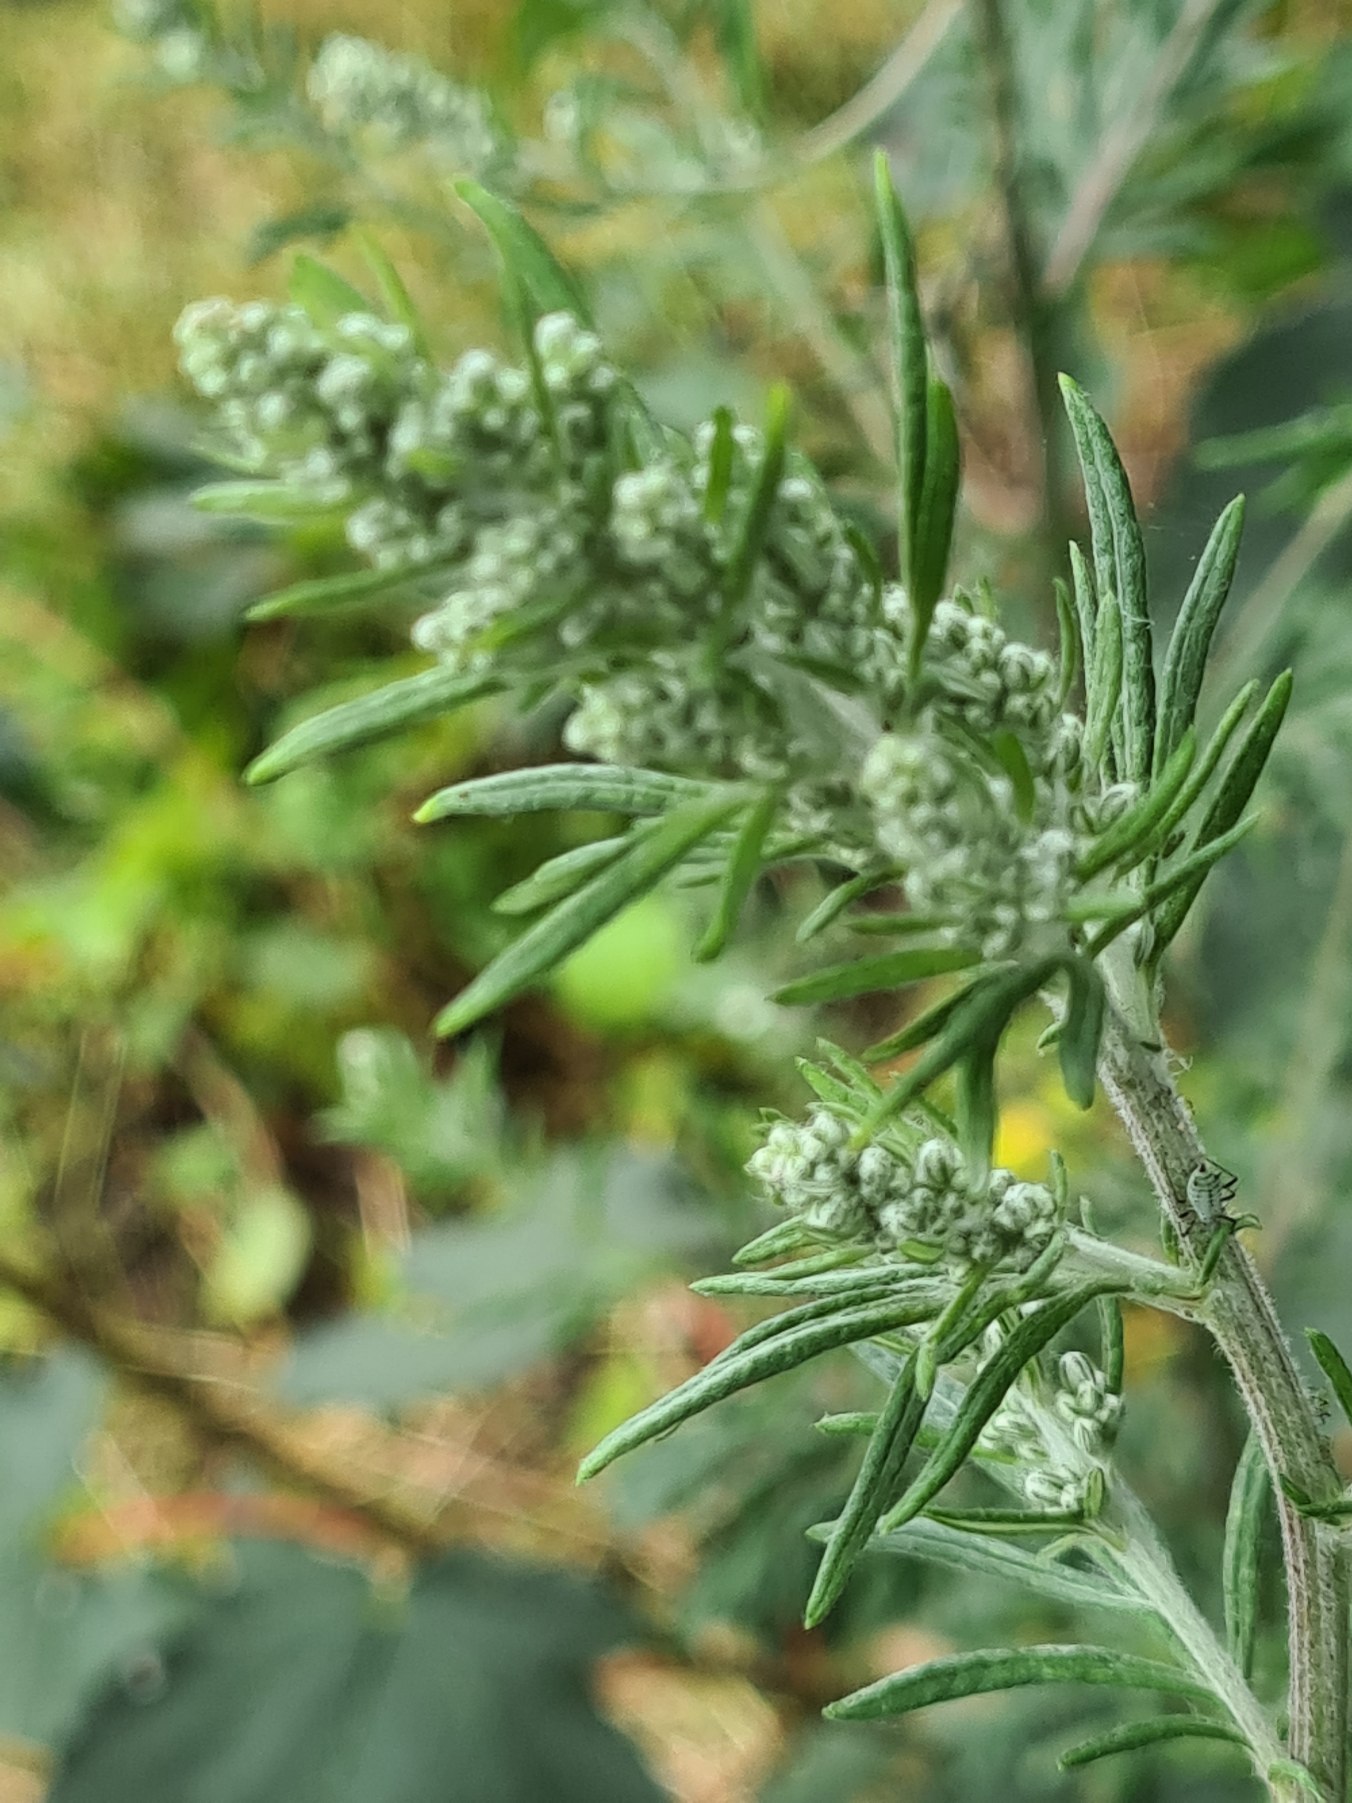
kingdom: Plantae
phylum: Tracheophyta
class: Magnoliopsida
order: Asterales
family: Asteraceae
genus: Artemisia
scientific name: Artemisia vulgaris
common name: Grå-bynke
